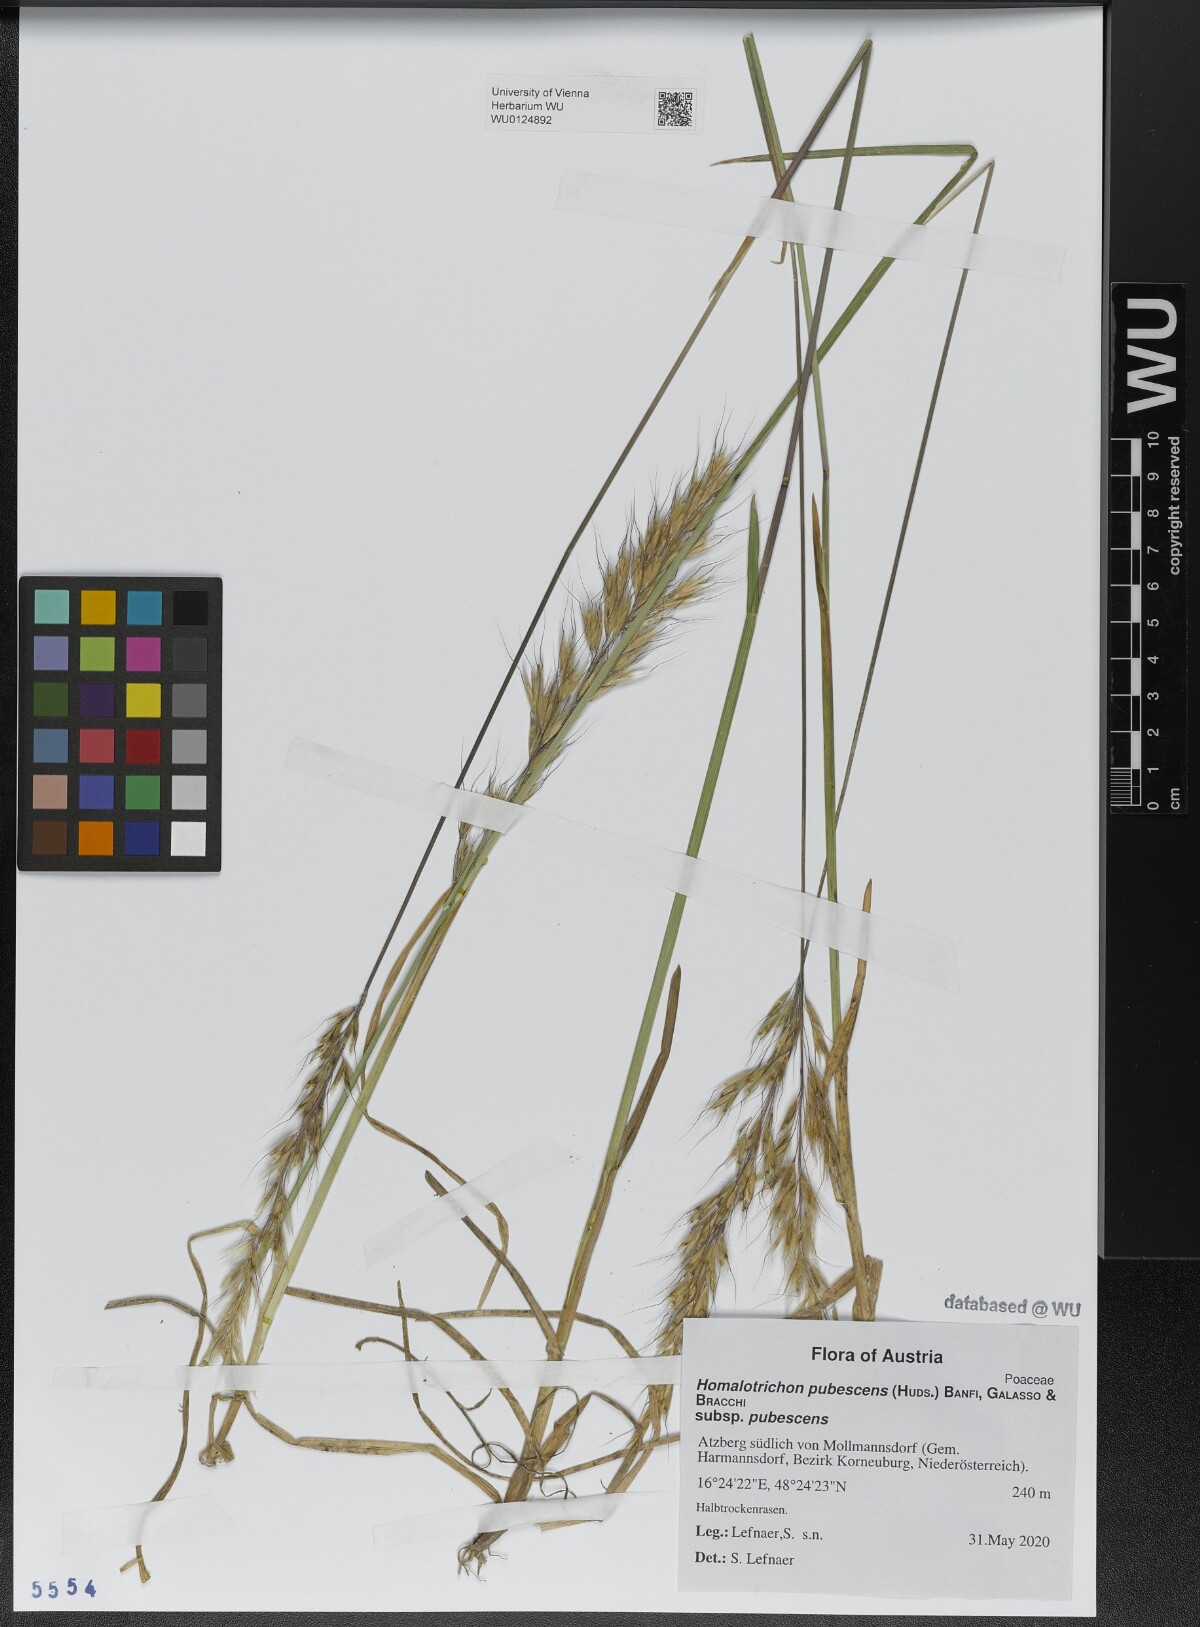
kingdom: Plantae
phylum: Tracheophyta
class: Liliopsida
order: Poales
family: Poaceae
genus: Avenula
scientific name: Avenula pubescens
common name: Downy alpine oatgrass
